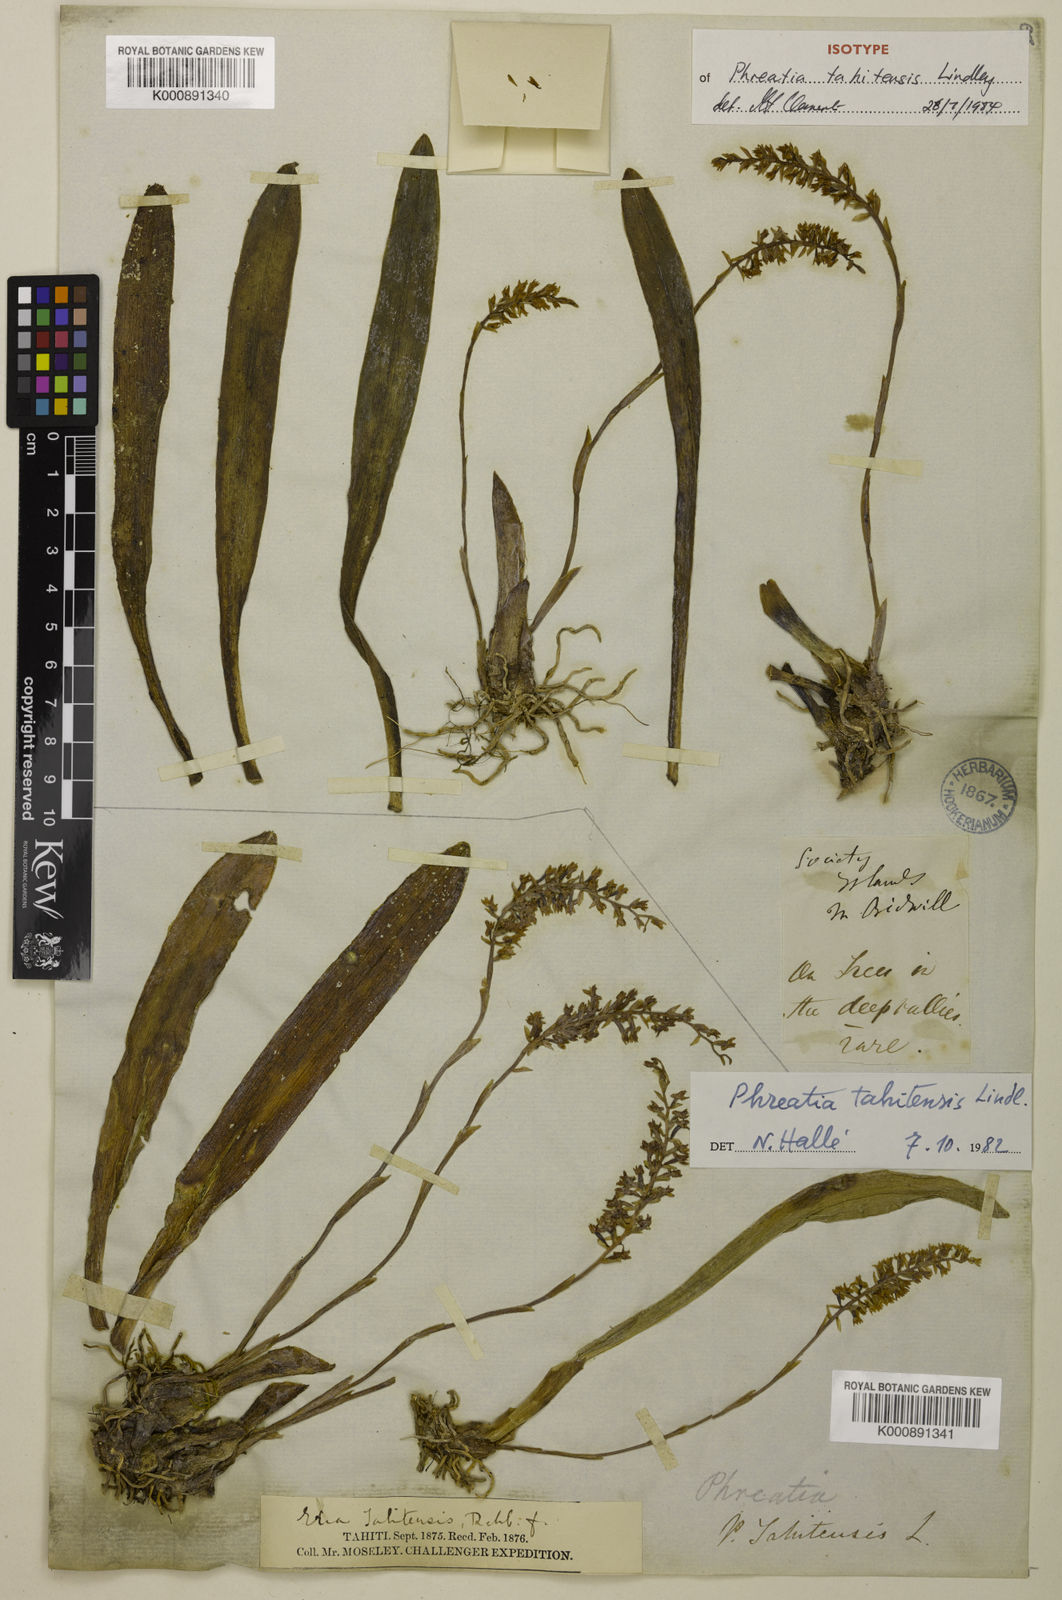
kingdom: Plantae
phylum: Tracheophyta
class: Liliopsida
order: Asparagales
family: Orchidaceae
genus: Phreatia
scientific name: Phreatia tahitensis
